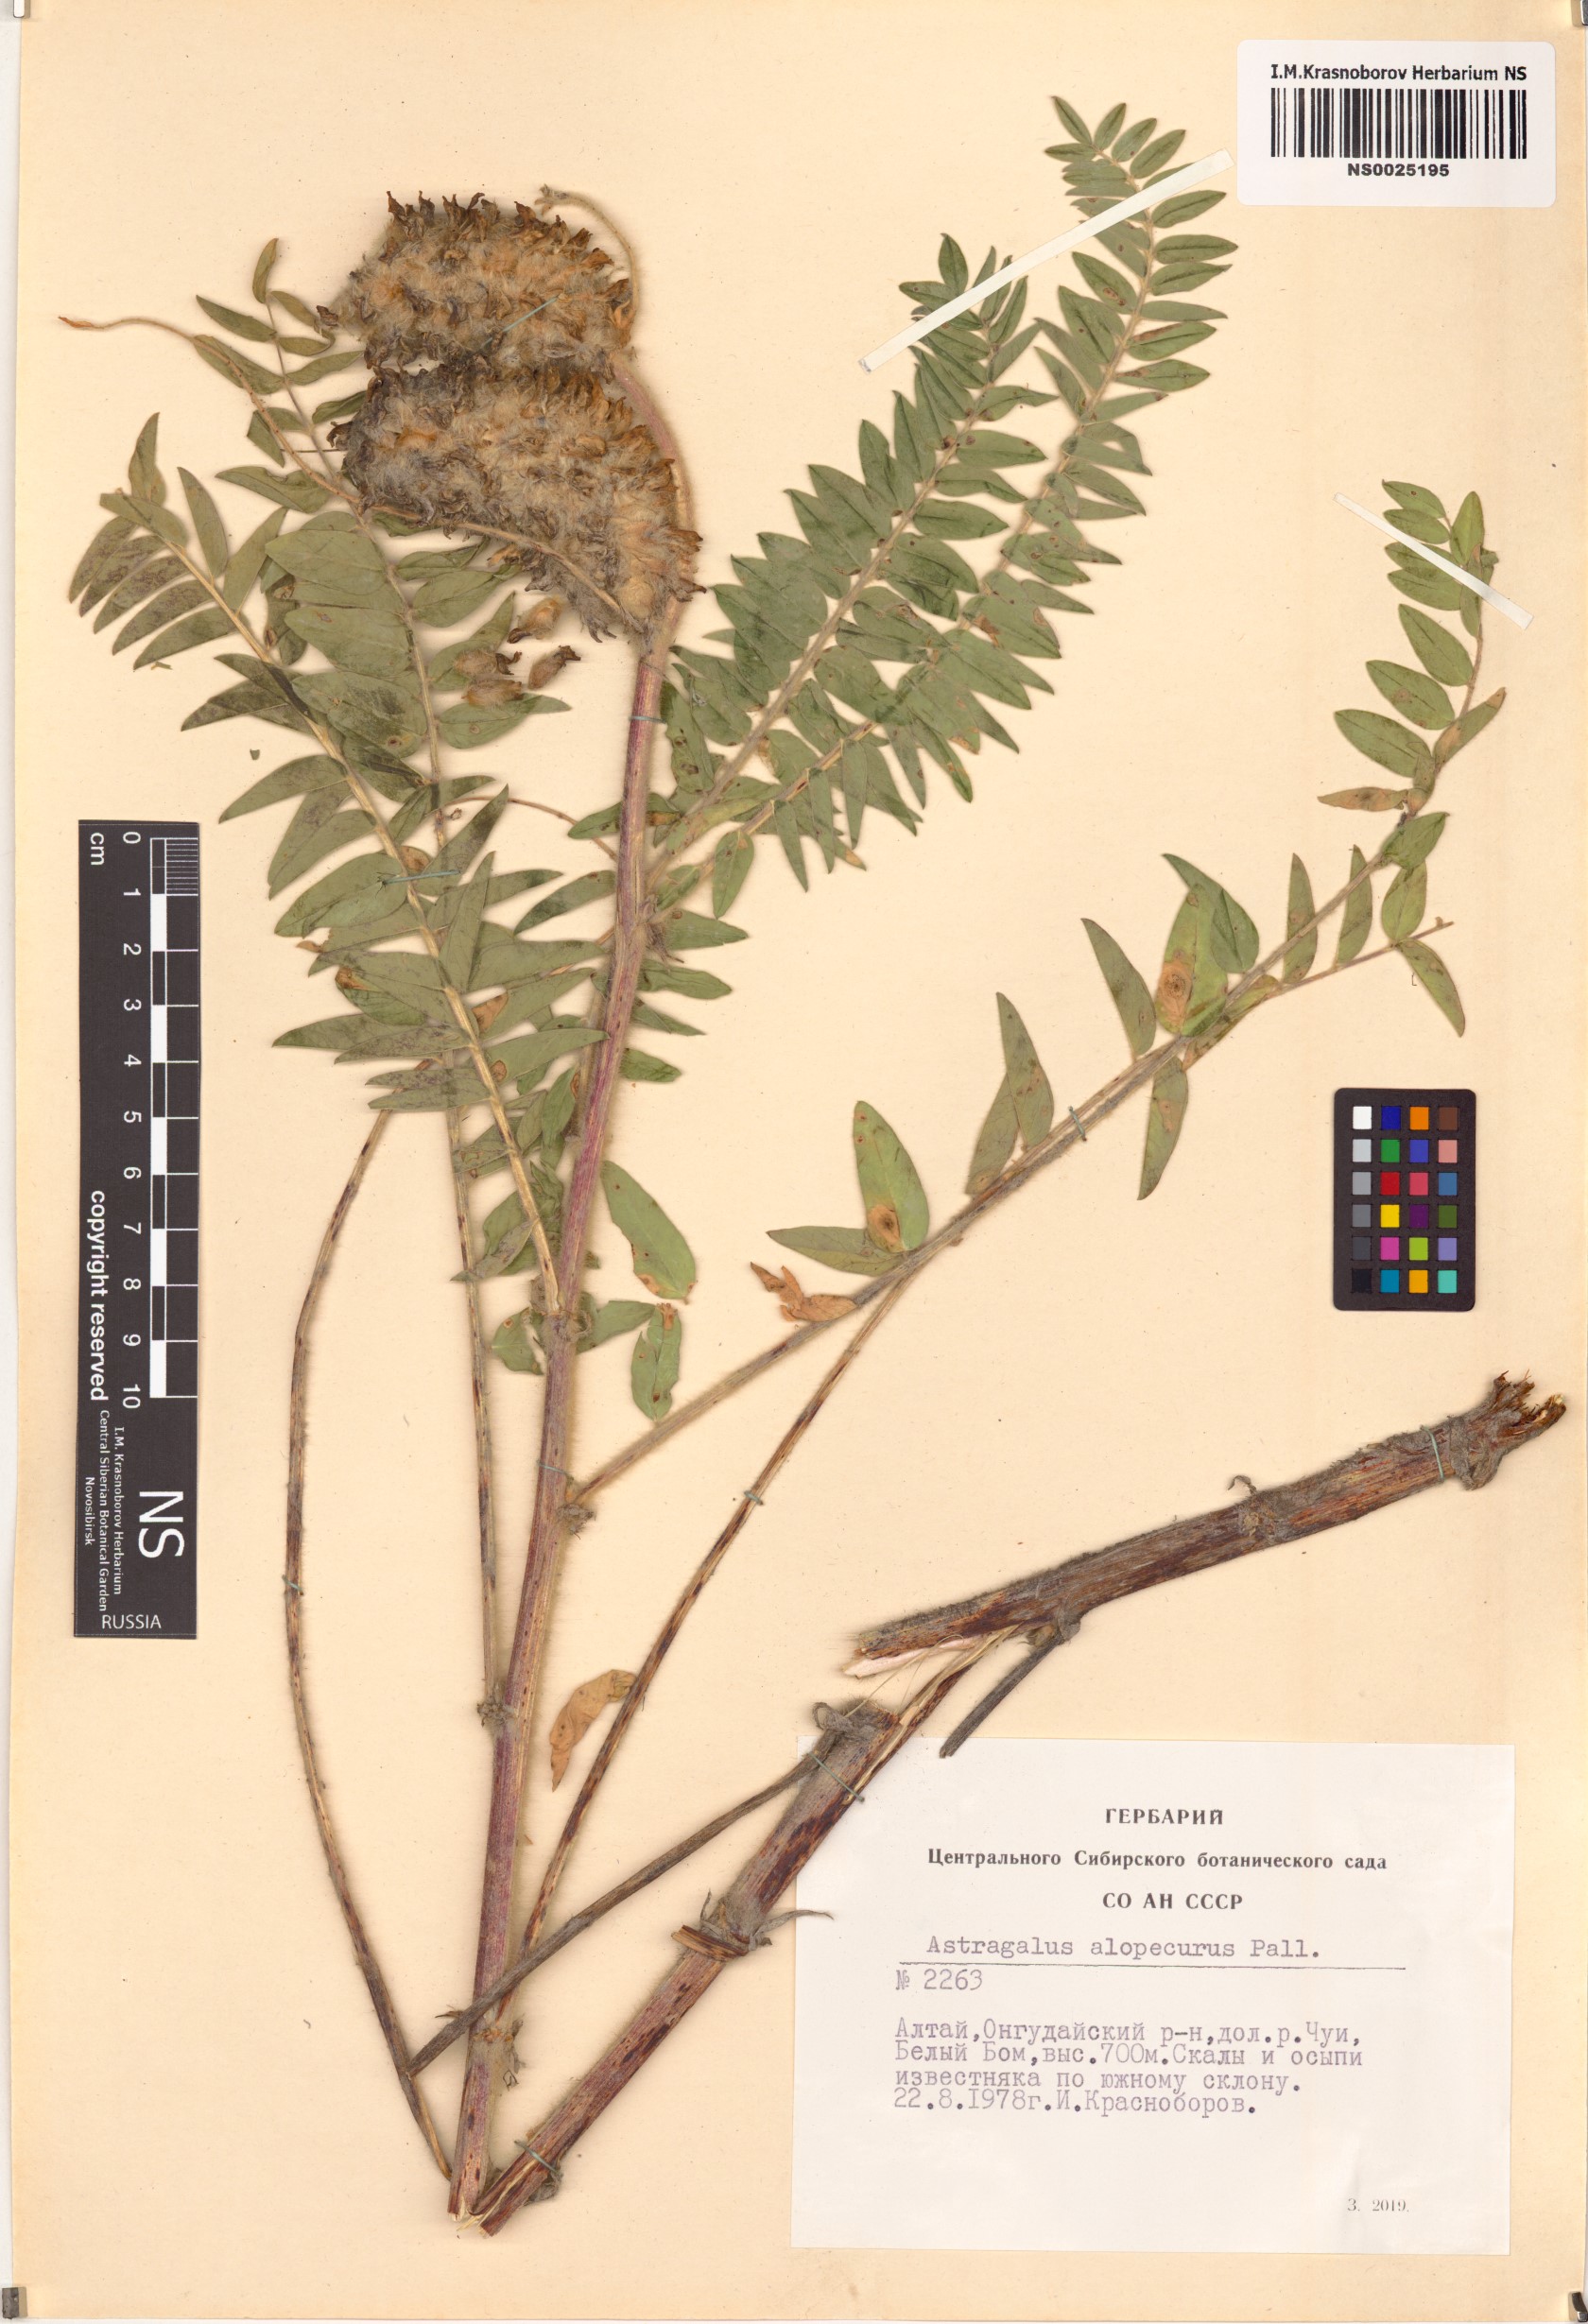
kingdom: Plantae
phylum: Tracheophyta
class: Magnoliopsida
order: Fabales
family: Fabaceae
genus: Astragalus
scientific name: Astragalus alopecurus
